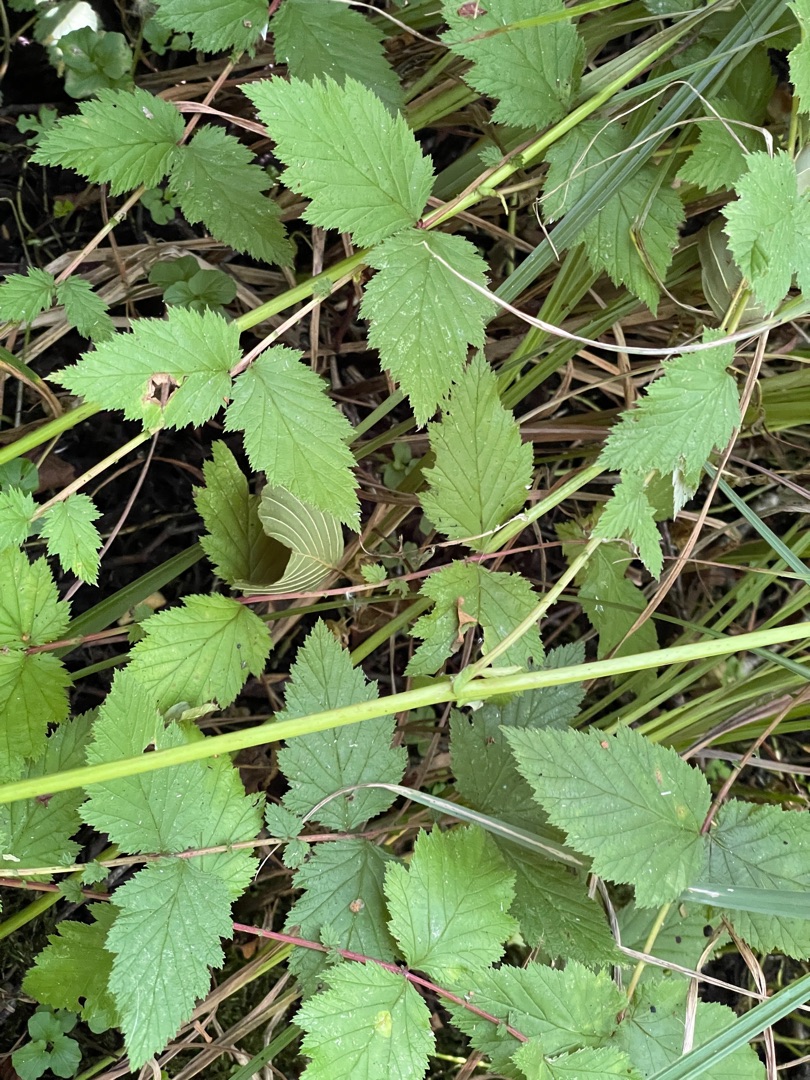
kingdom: Plantae
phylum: Tracheophyta
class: Magnoliopsida
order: Rosales
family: Rosaceae
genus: Filipendula
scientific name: Filipendula ulmaria
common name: Almindelig mjødurt
